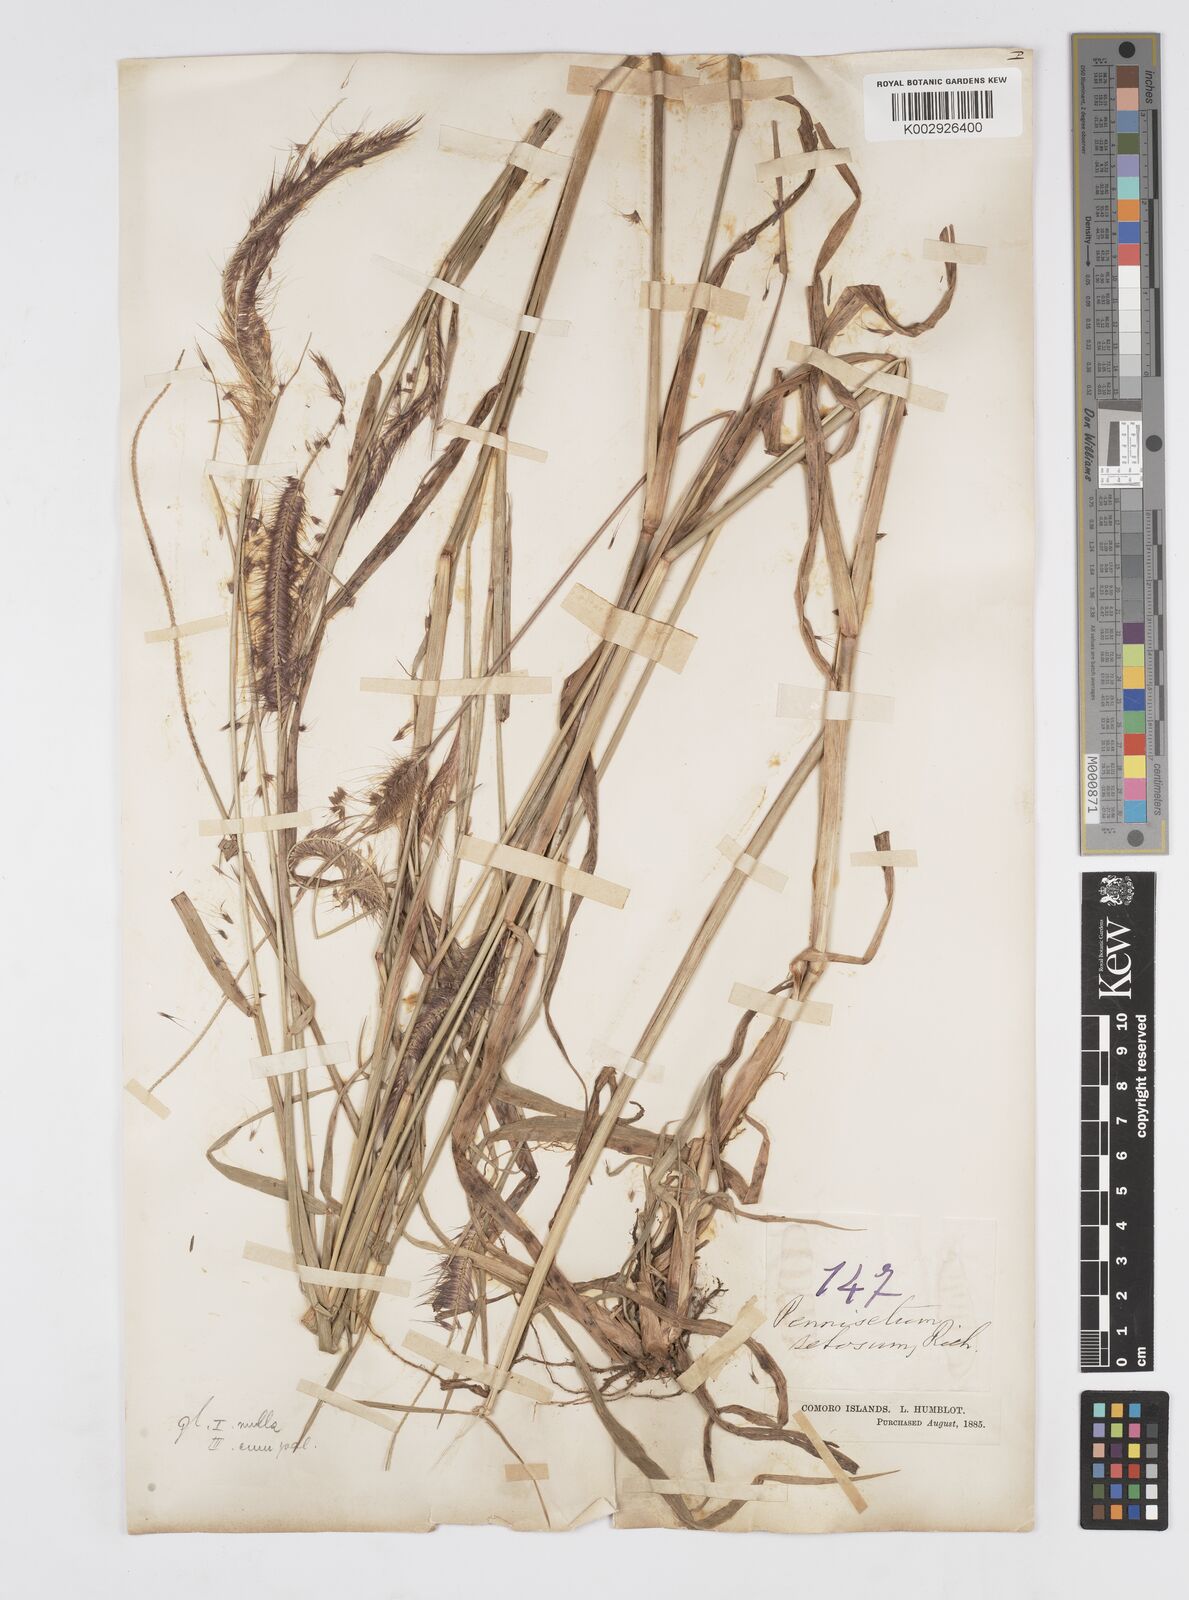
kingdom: Plantae
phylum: Tracheophyta
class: Liliopsida
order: Poales
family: Poaceae
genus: Setaria
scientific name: Setaria parviflora
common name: Knotroot bristle-grass
